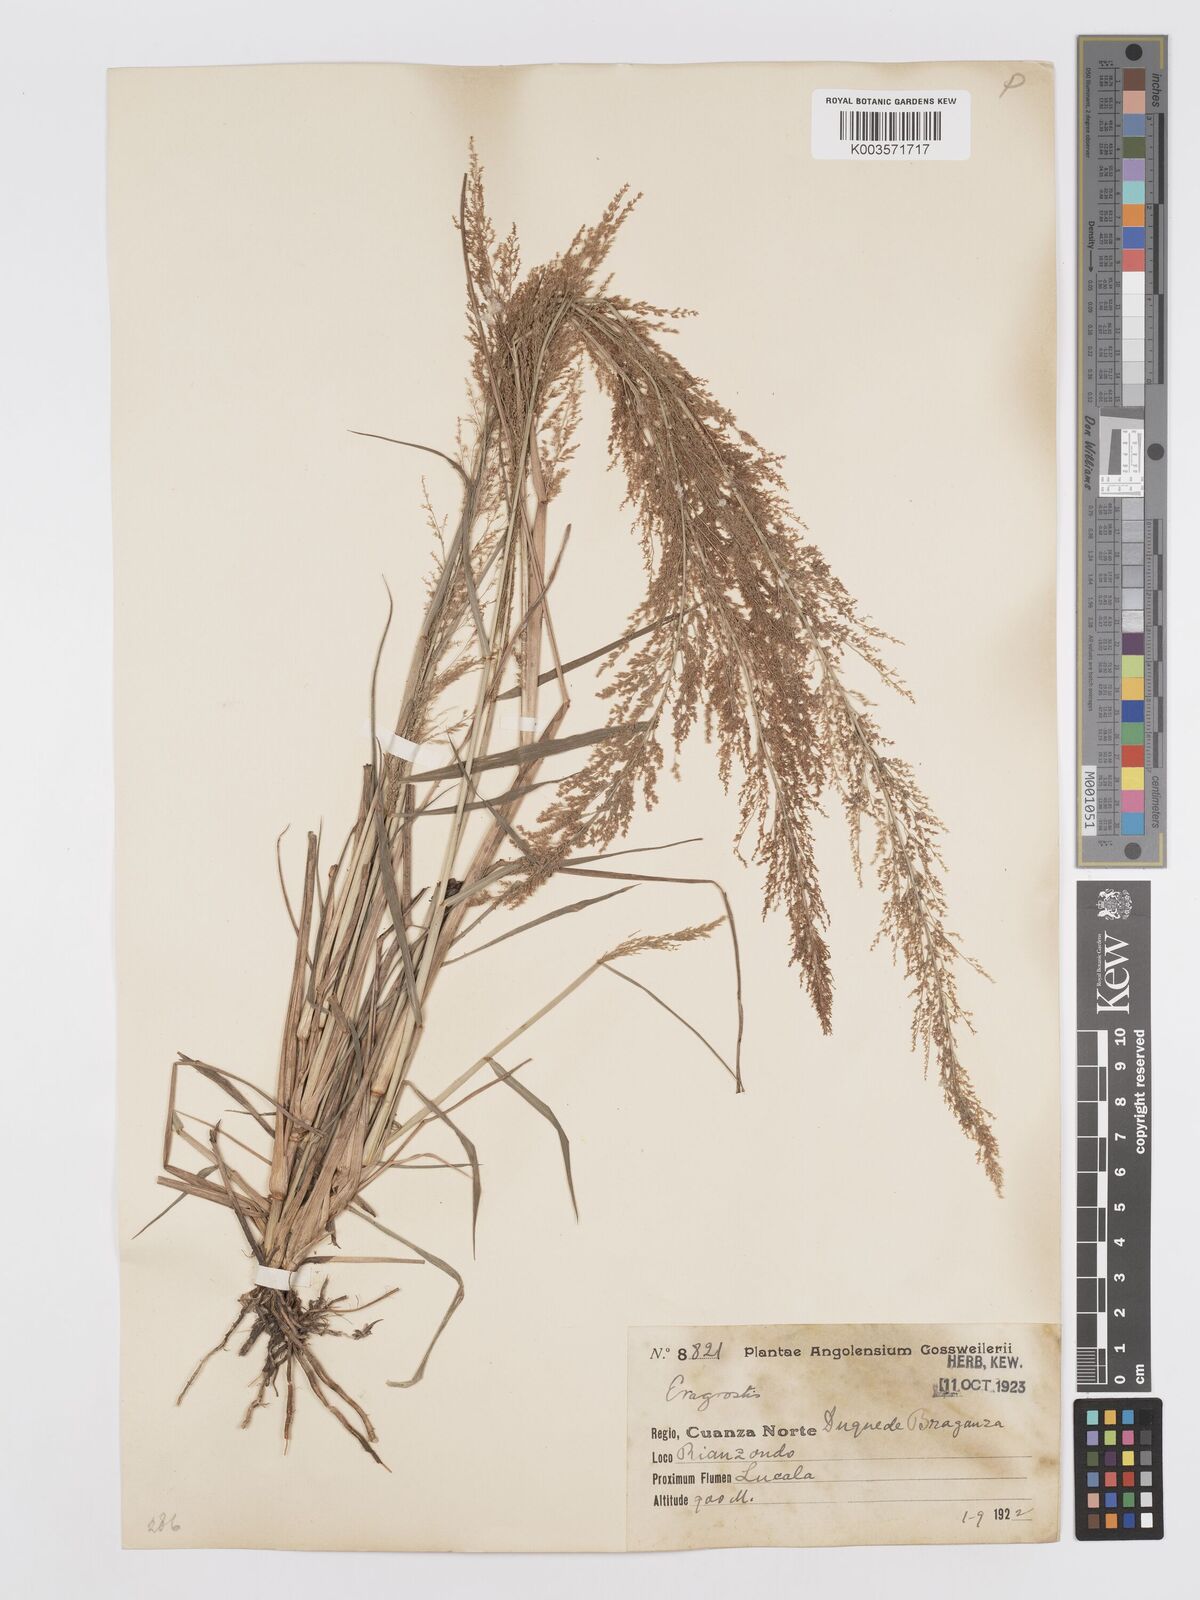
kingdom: Plantae
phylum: Tracheophyta
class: Liliopsida
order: Poales
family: Poaceae
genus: Eragrostis
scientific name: Eragrostis japonica
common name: Pond lovegrass
